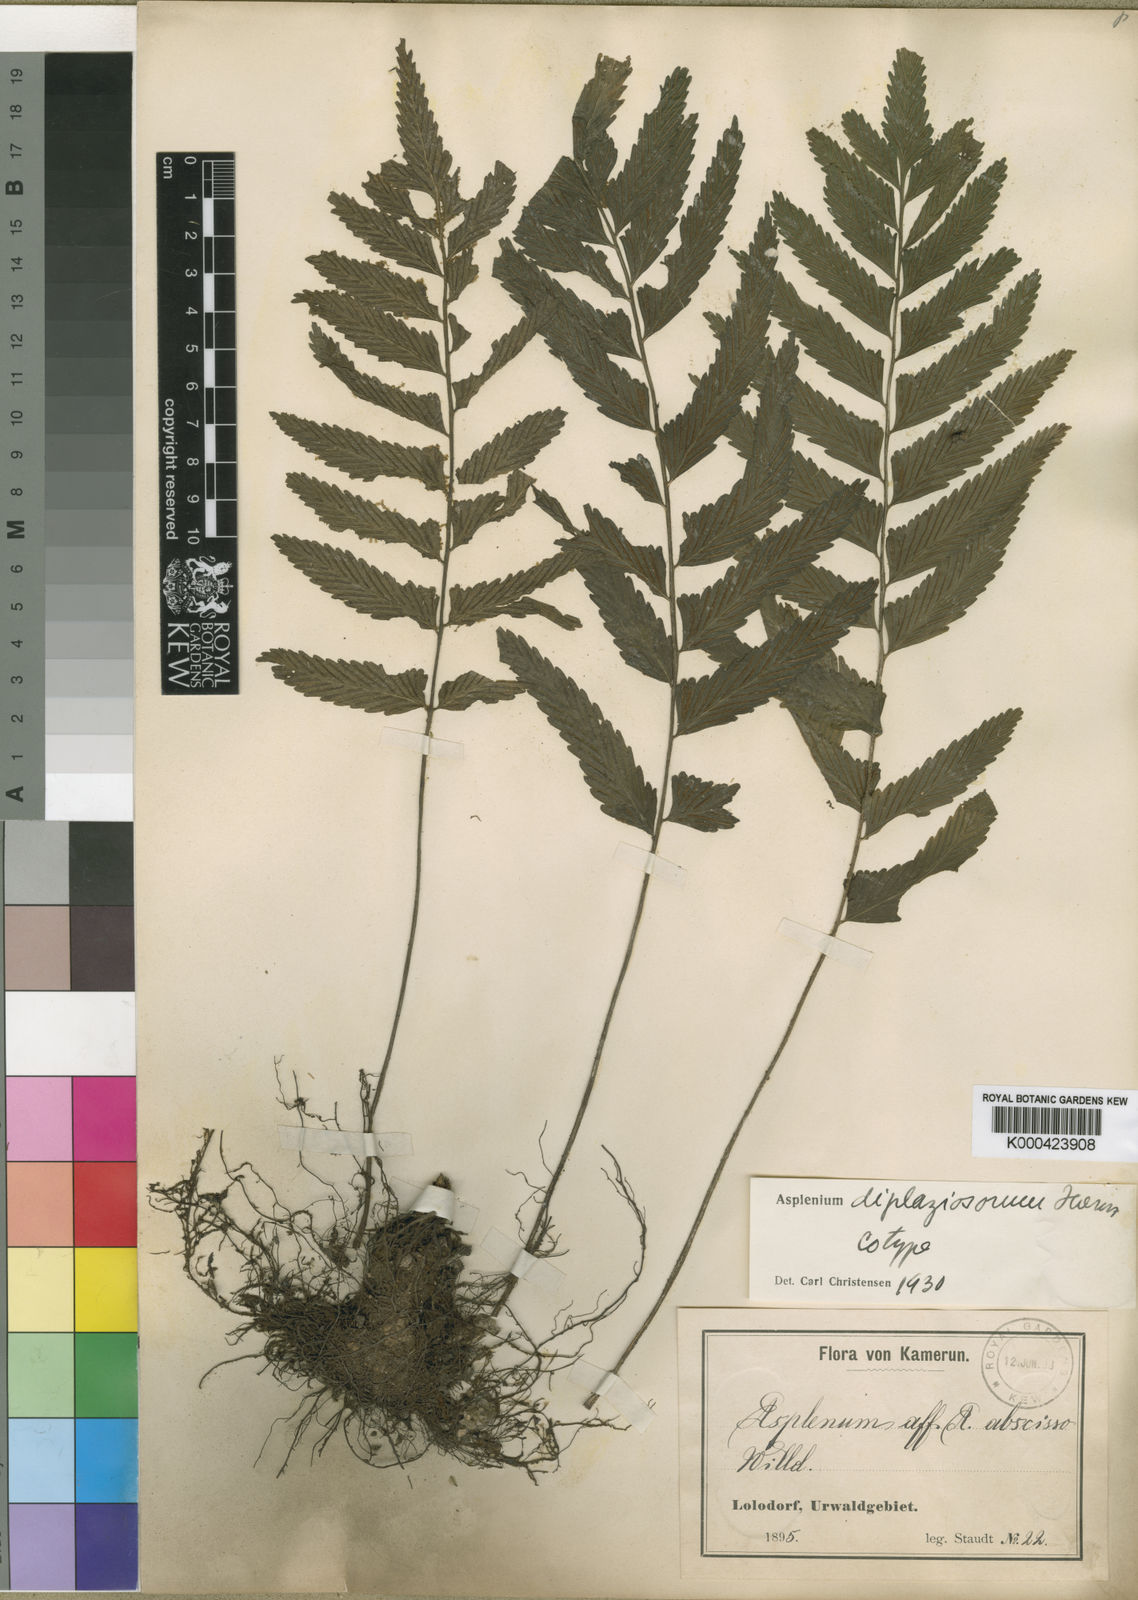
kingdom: Plantae
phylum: Tracheophyta
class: Polypodiopsida
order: Polypodiales
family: Aspleniaceae
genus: Asplenium
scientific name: Asplenium
